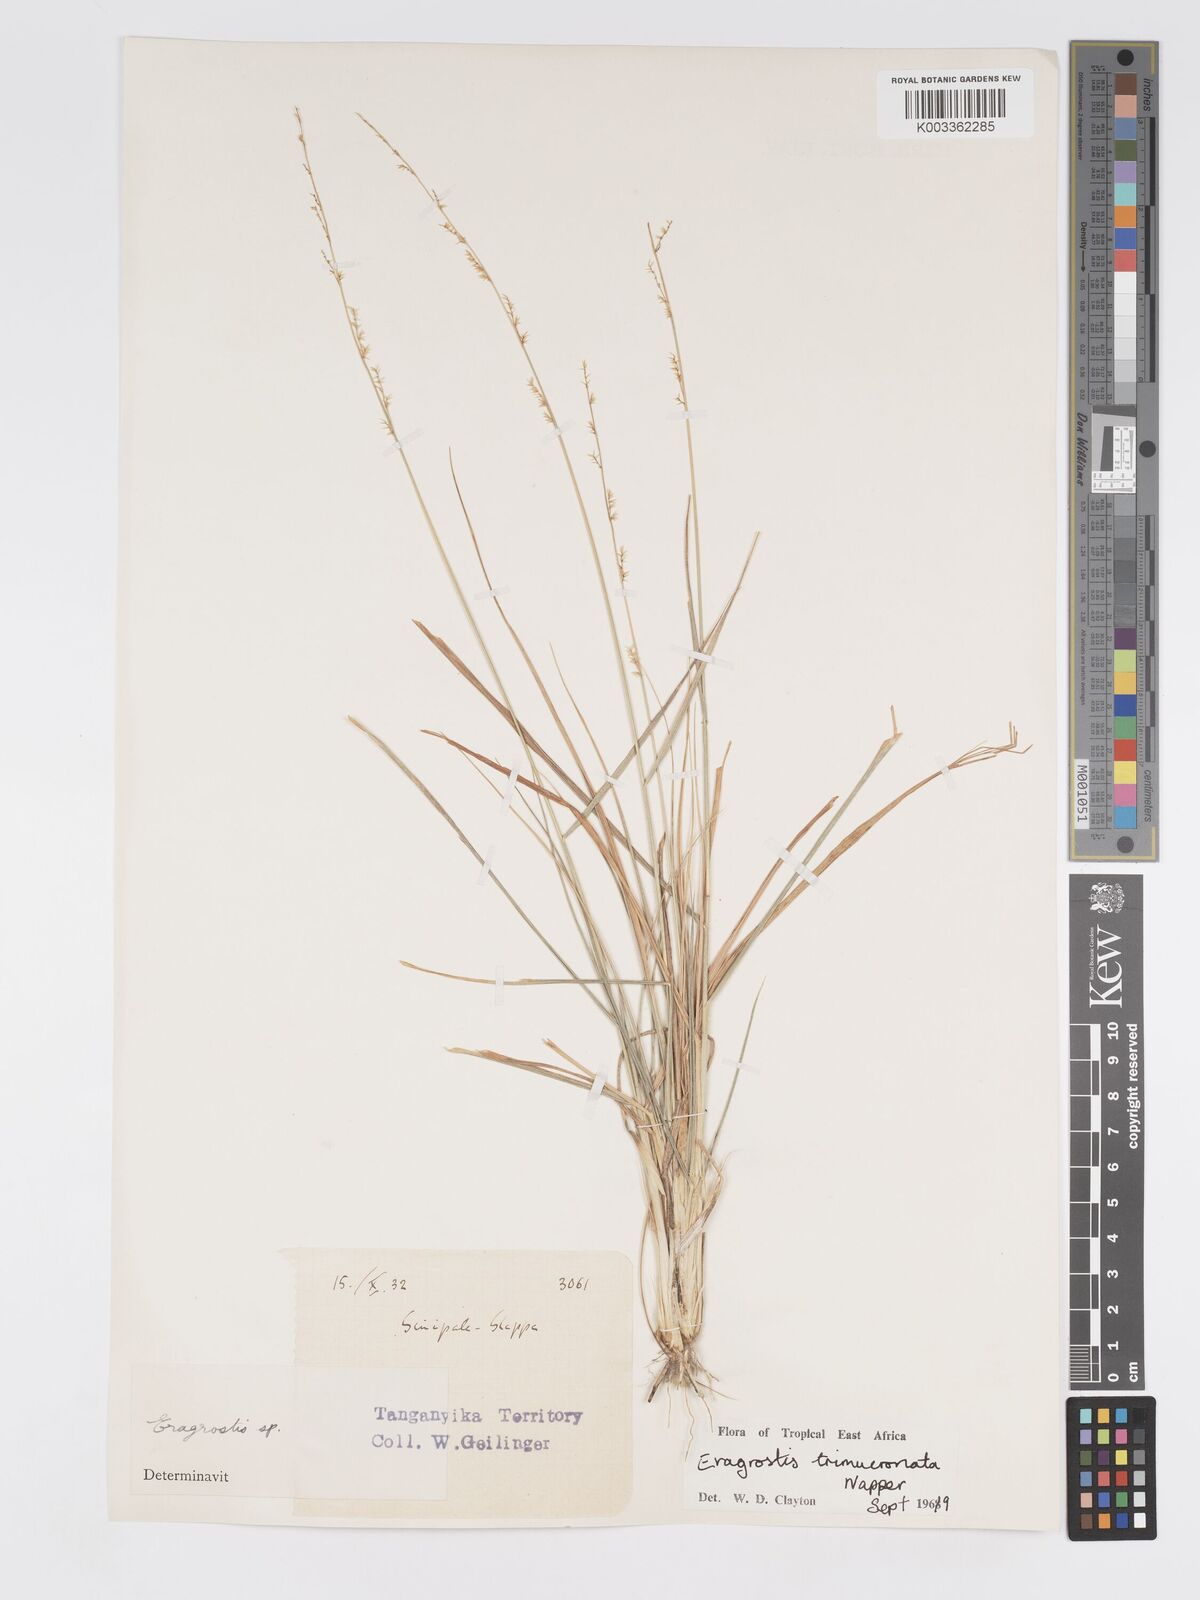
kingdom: Plantae
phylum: Tracheophyta
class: Liliopsida
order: Poales
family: Poaceae
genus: Eragrostis
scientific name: Eragrostis trimucronata
